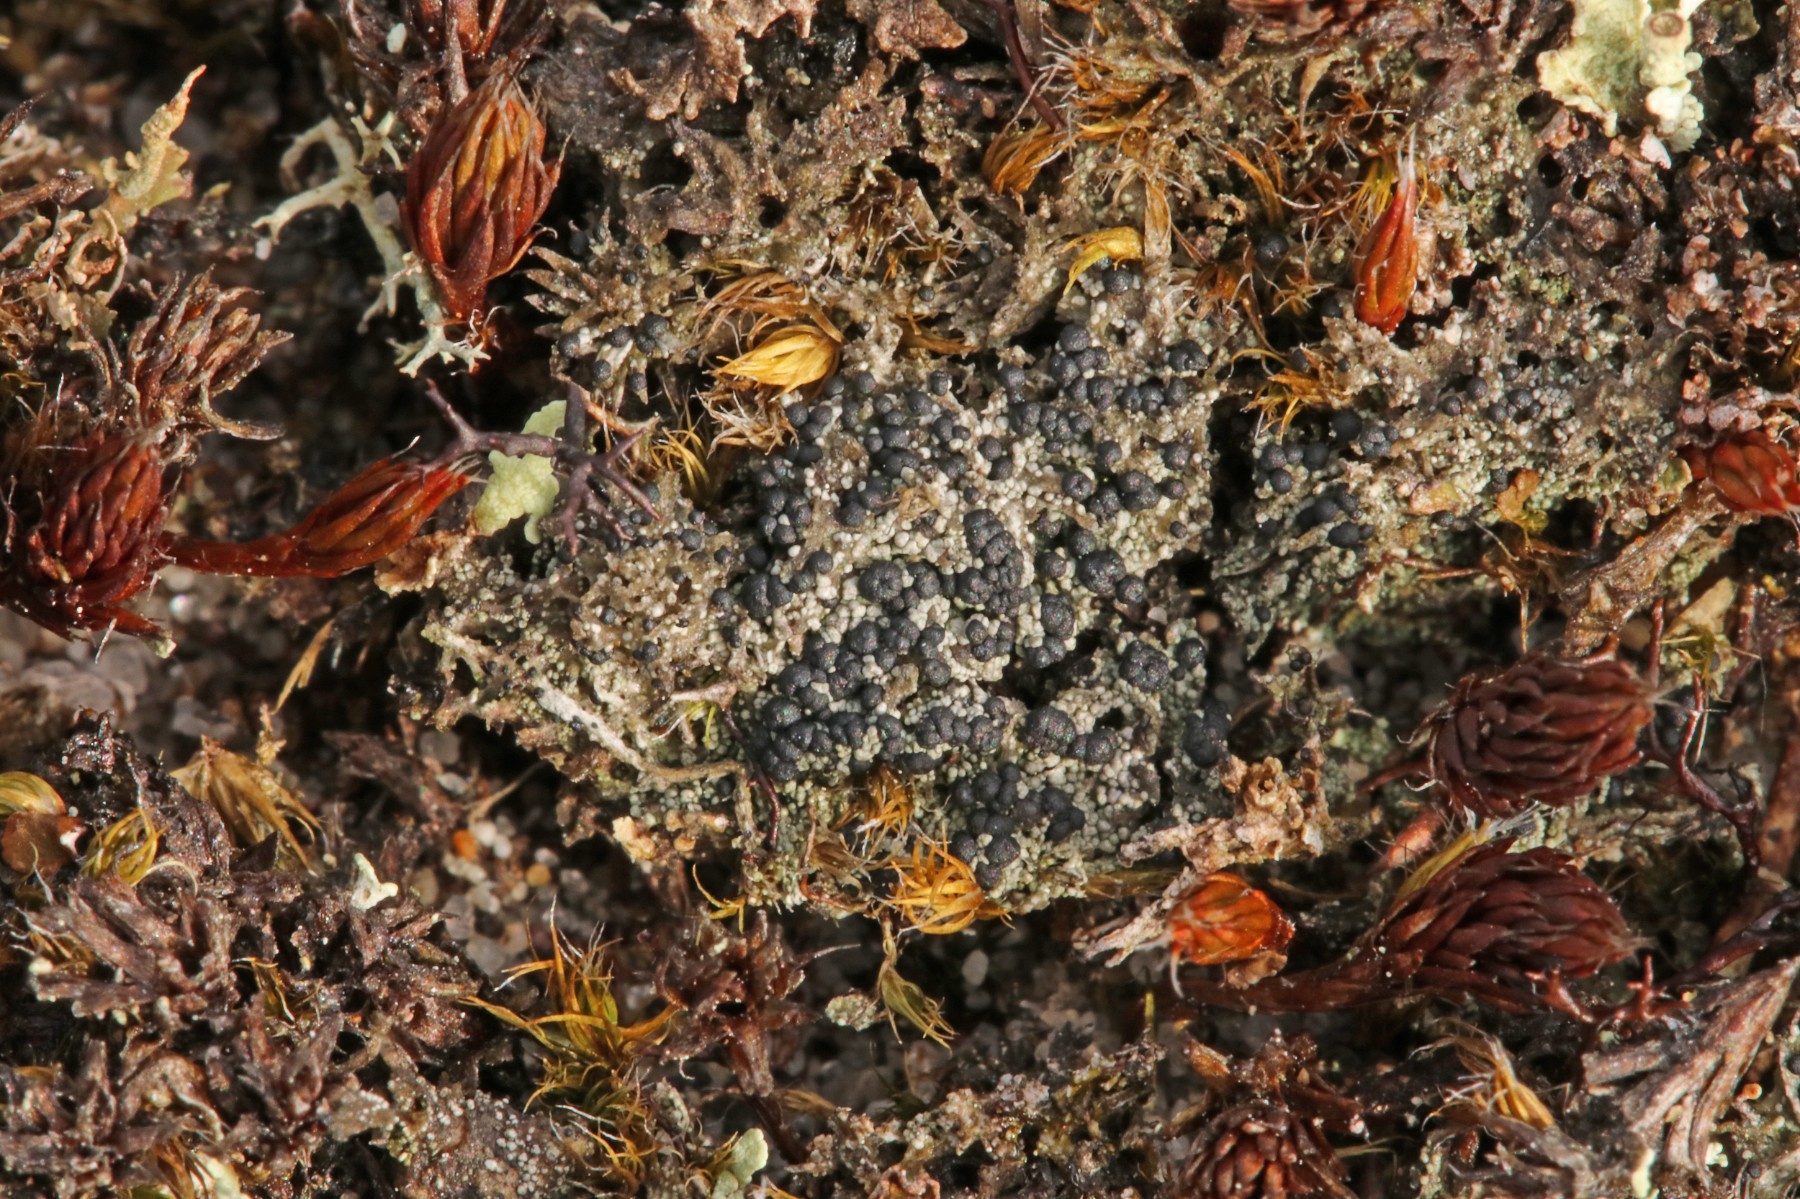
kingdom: Fungi
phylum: Ascomycota
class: Lecanoromycetes
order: Lecanorales
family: Byssolomataceae
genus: Micarea
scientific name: Micarea lignaria
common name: tørve-knaplav
